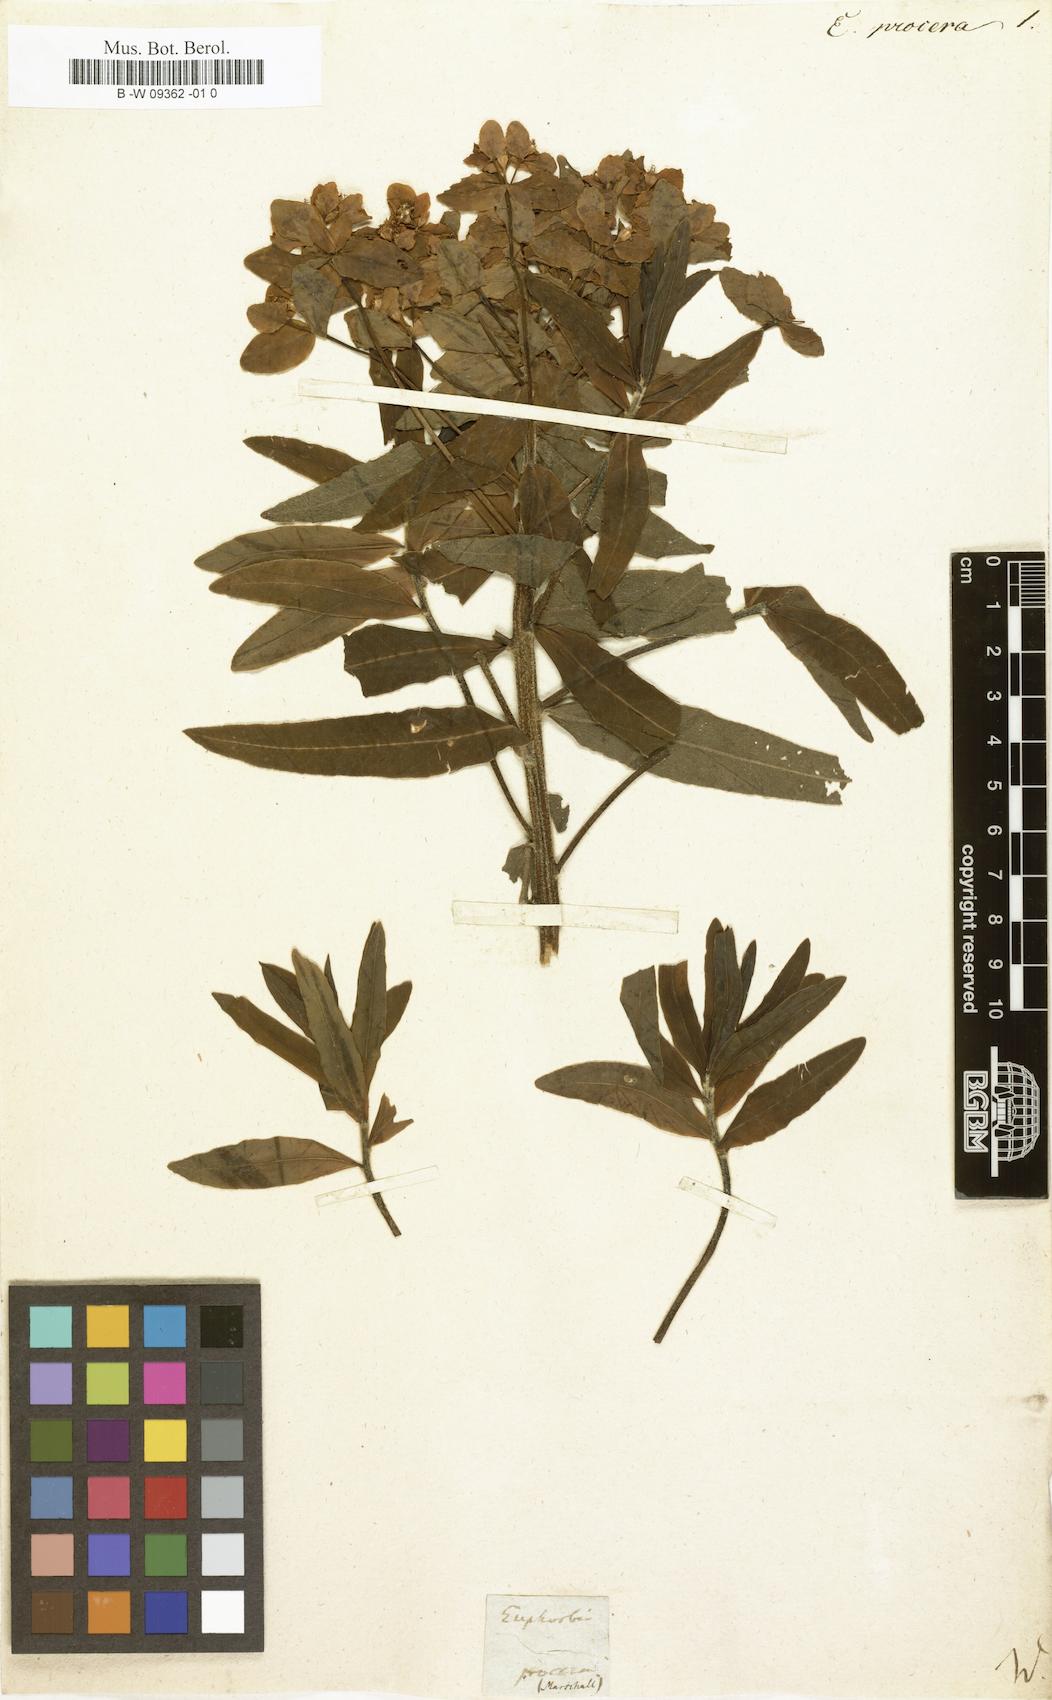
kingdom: Plantae
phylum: Tracheophyta
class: Magnoliopsida
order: Malpighiales
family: Euphorbiaceae
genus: Euphorbia
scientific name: Euphorbia procera
